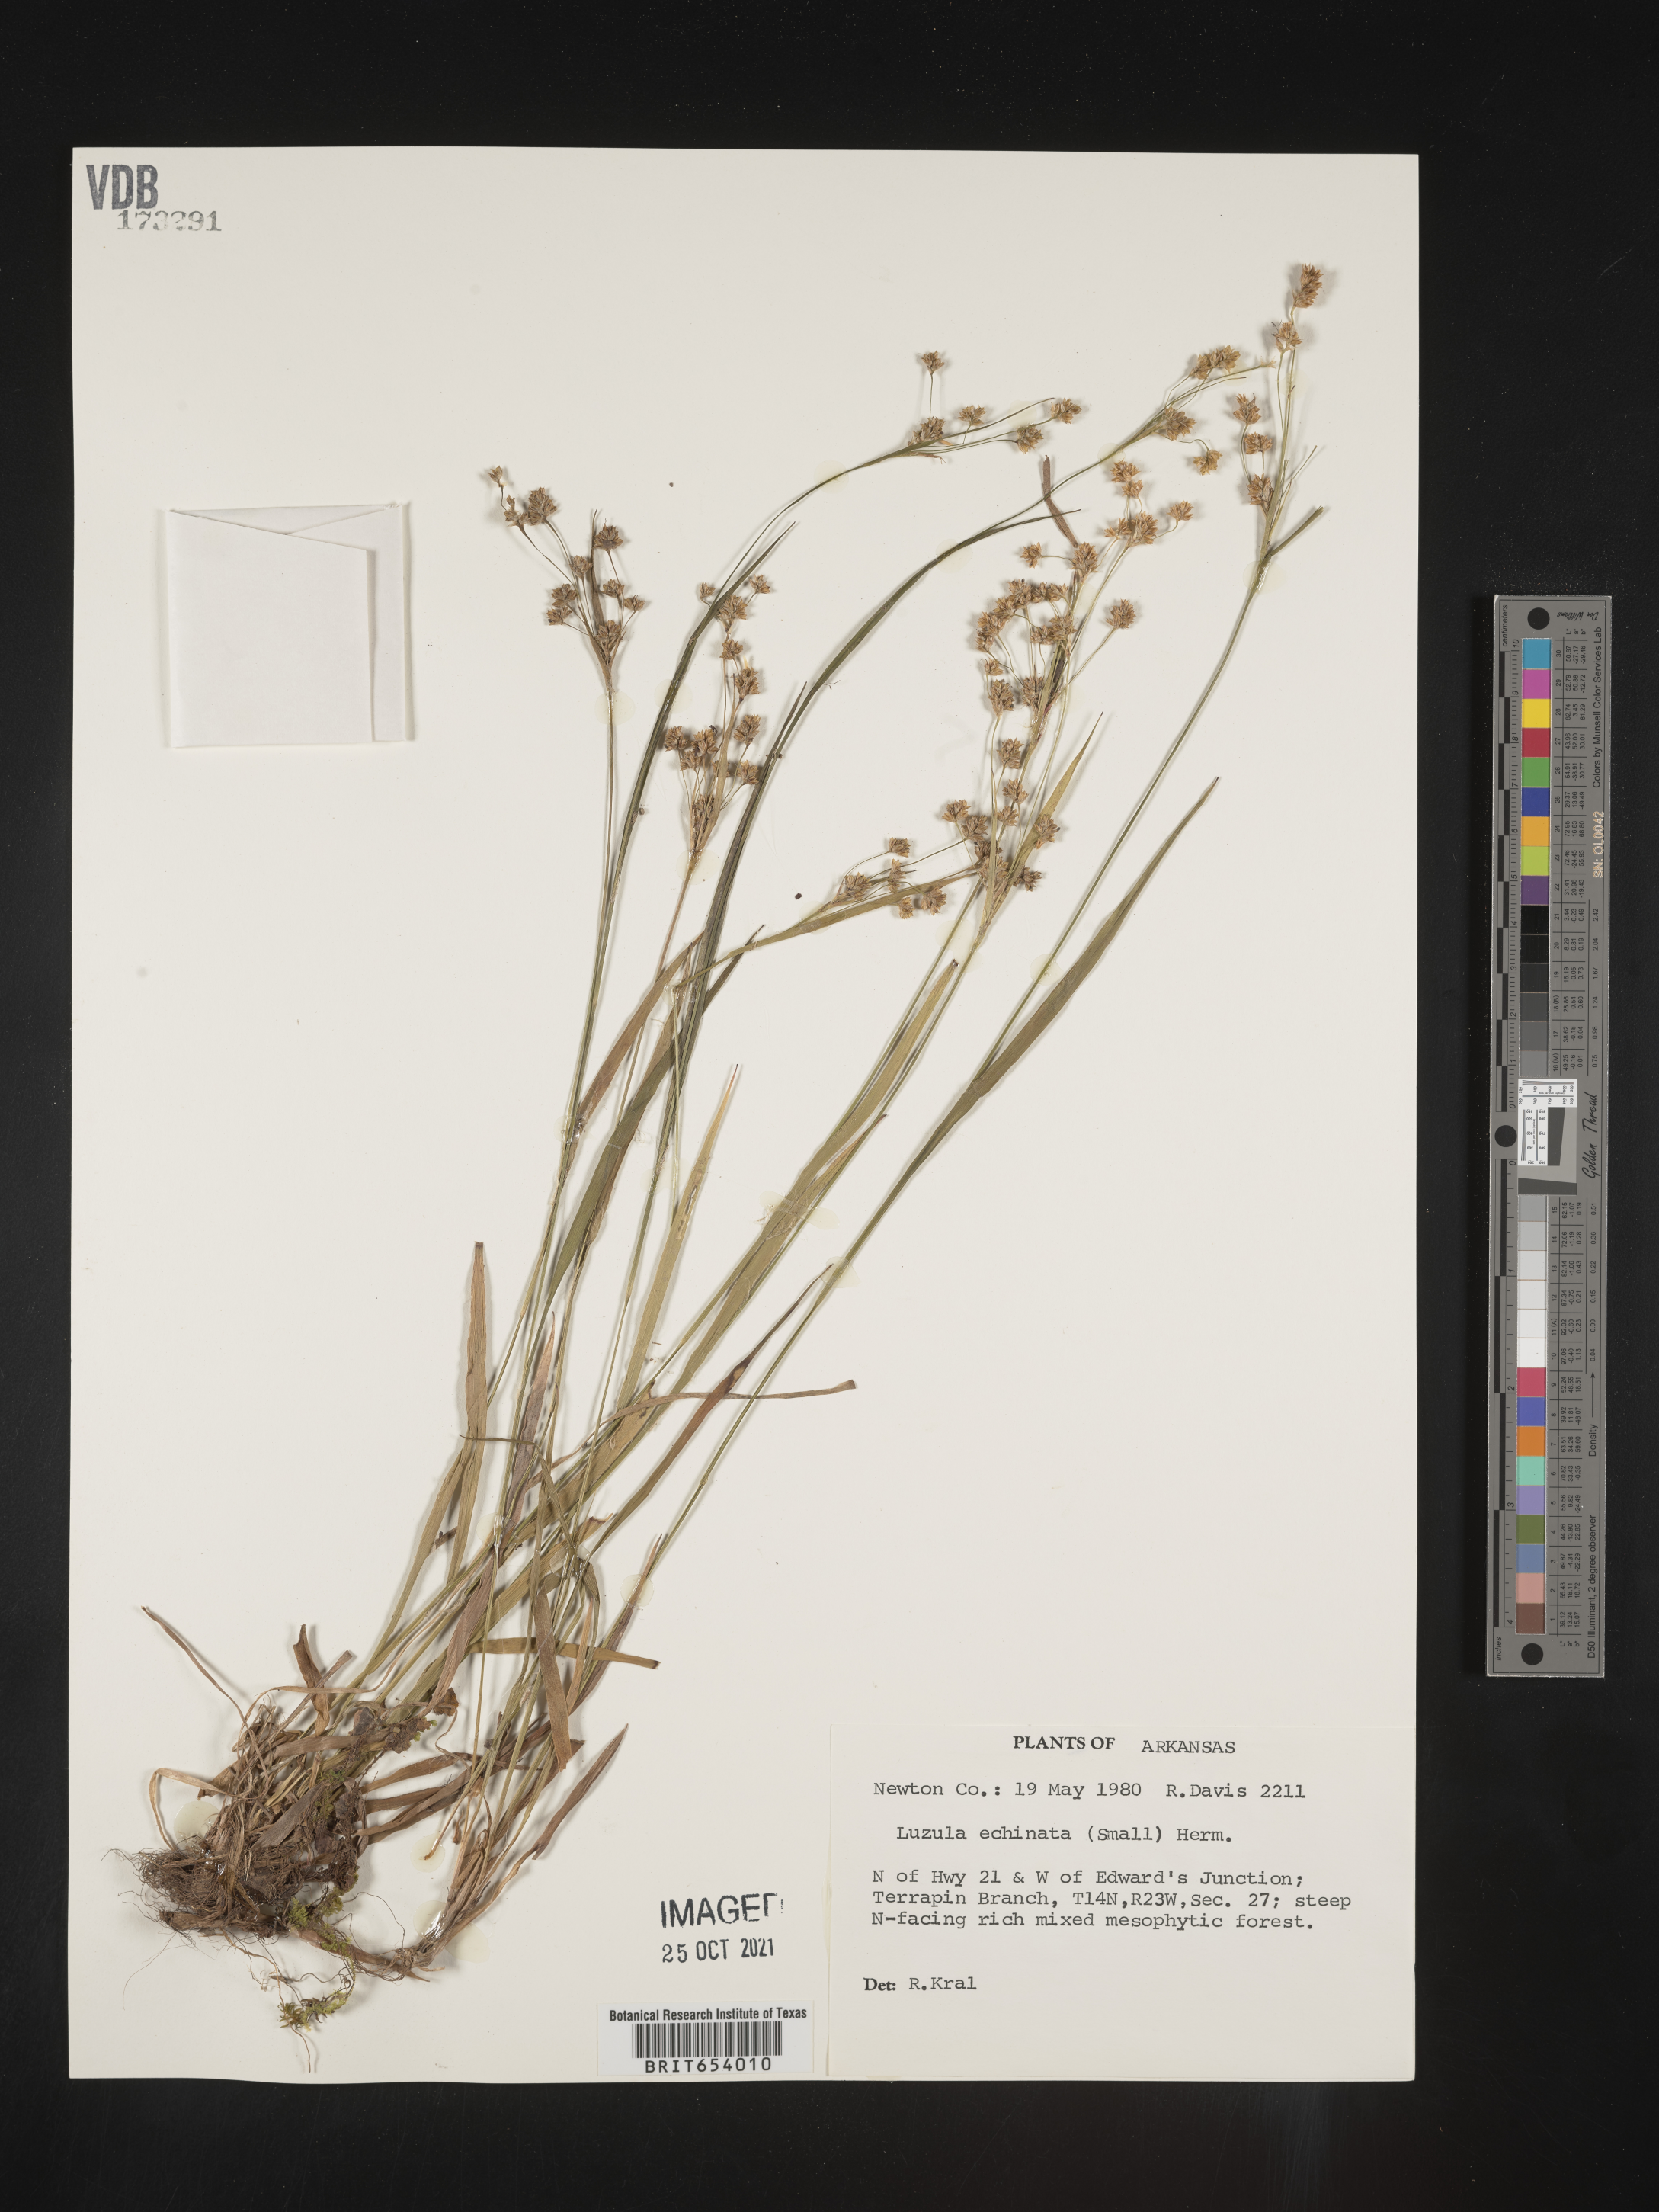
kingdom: Plantae
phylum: Tracheophyta
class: Liliopsida
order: Poales
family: Juncaceae
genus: Luzula
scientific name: Luzula echinata
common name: Hedgehog woodrush
